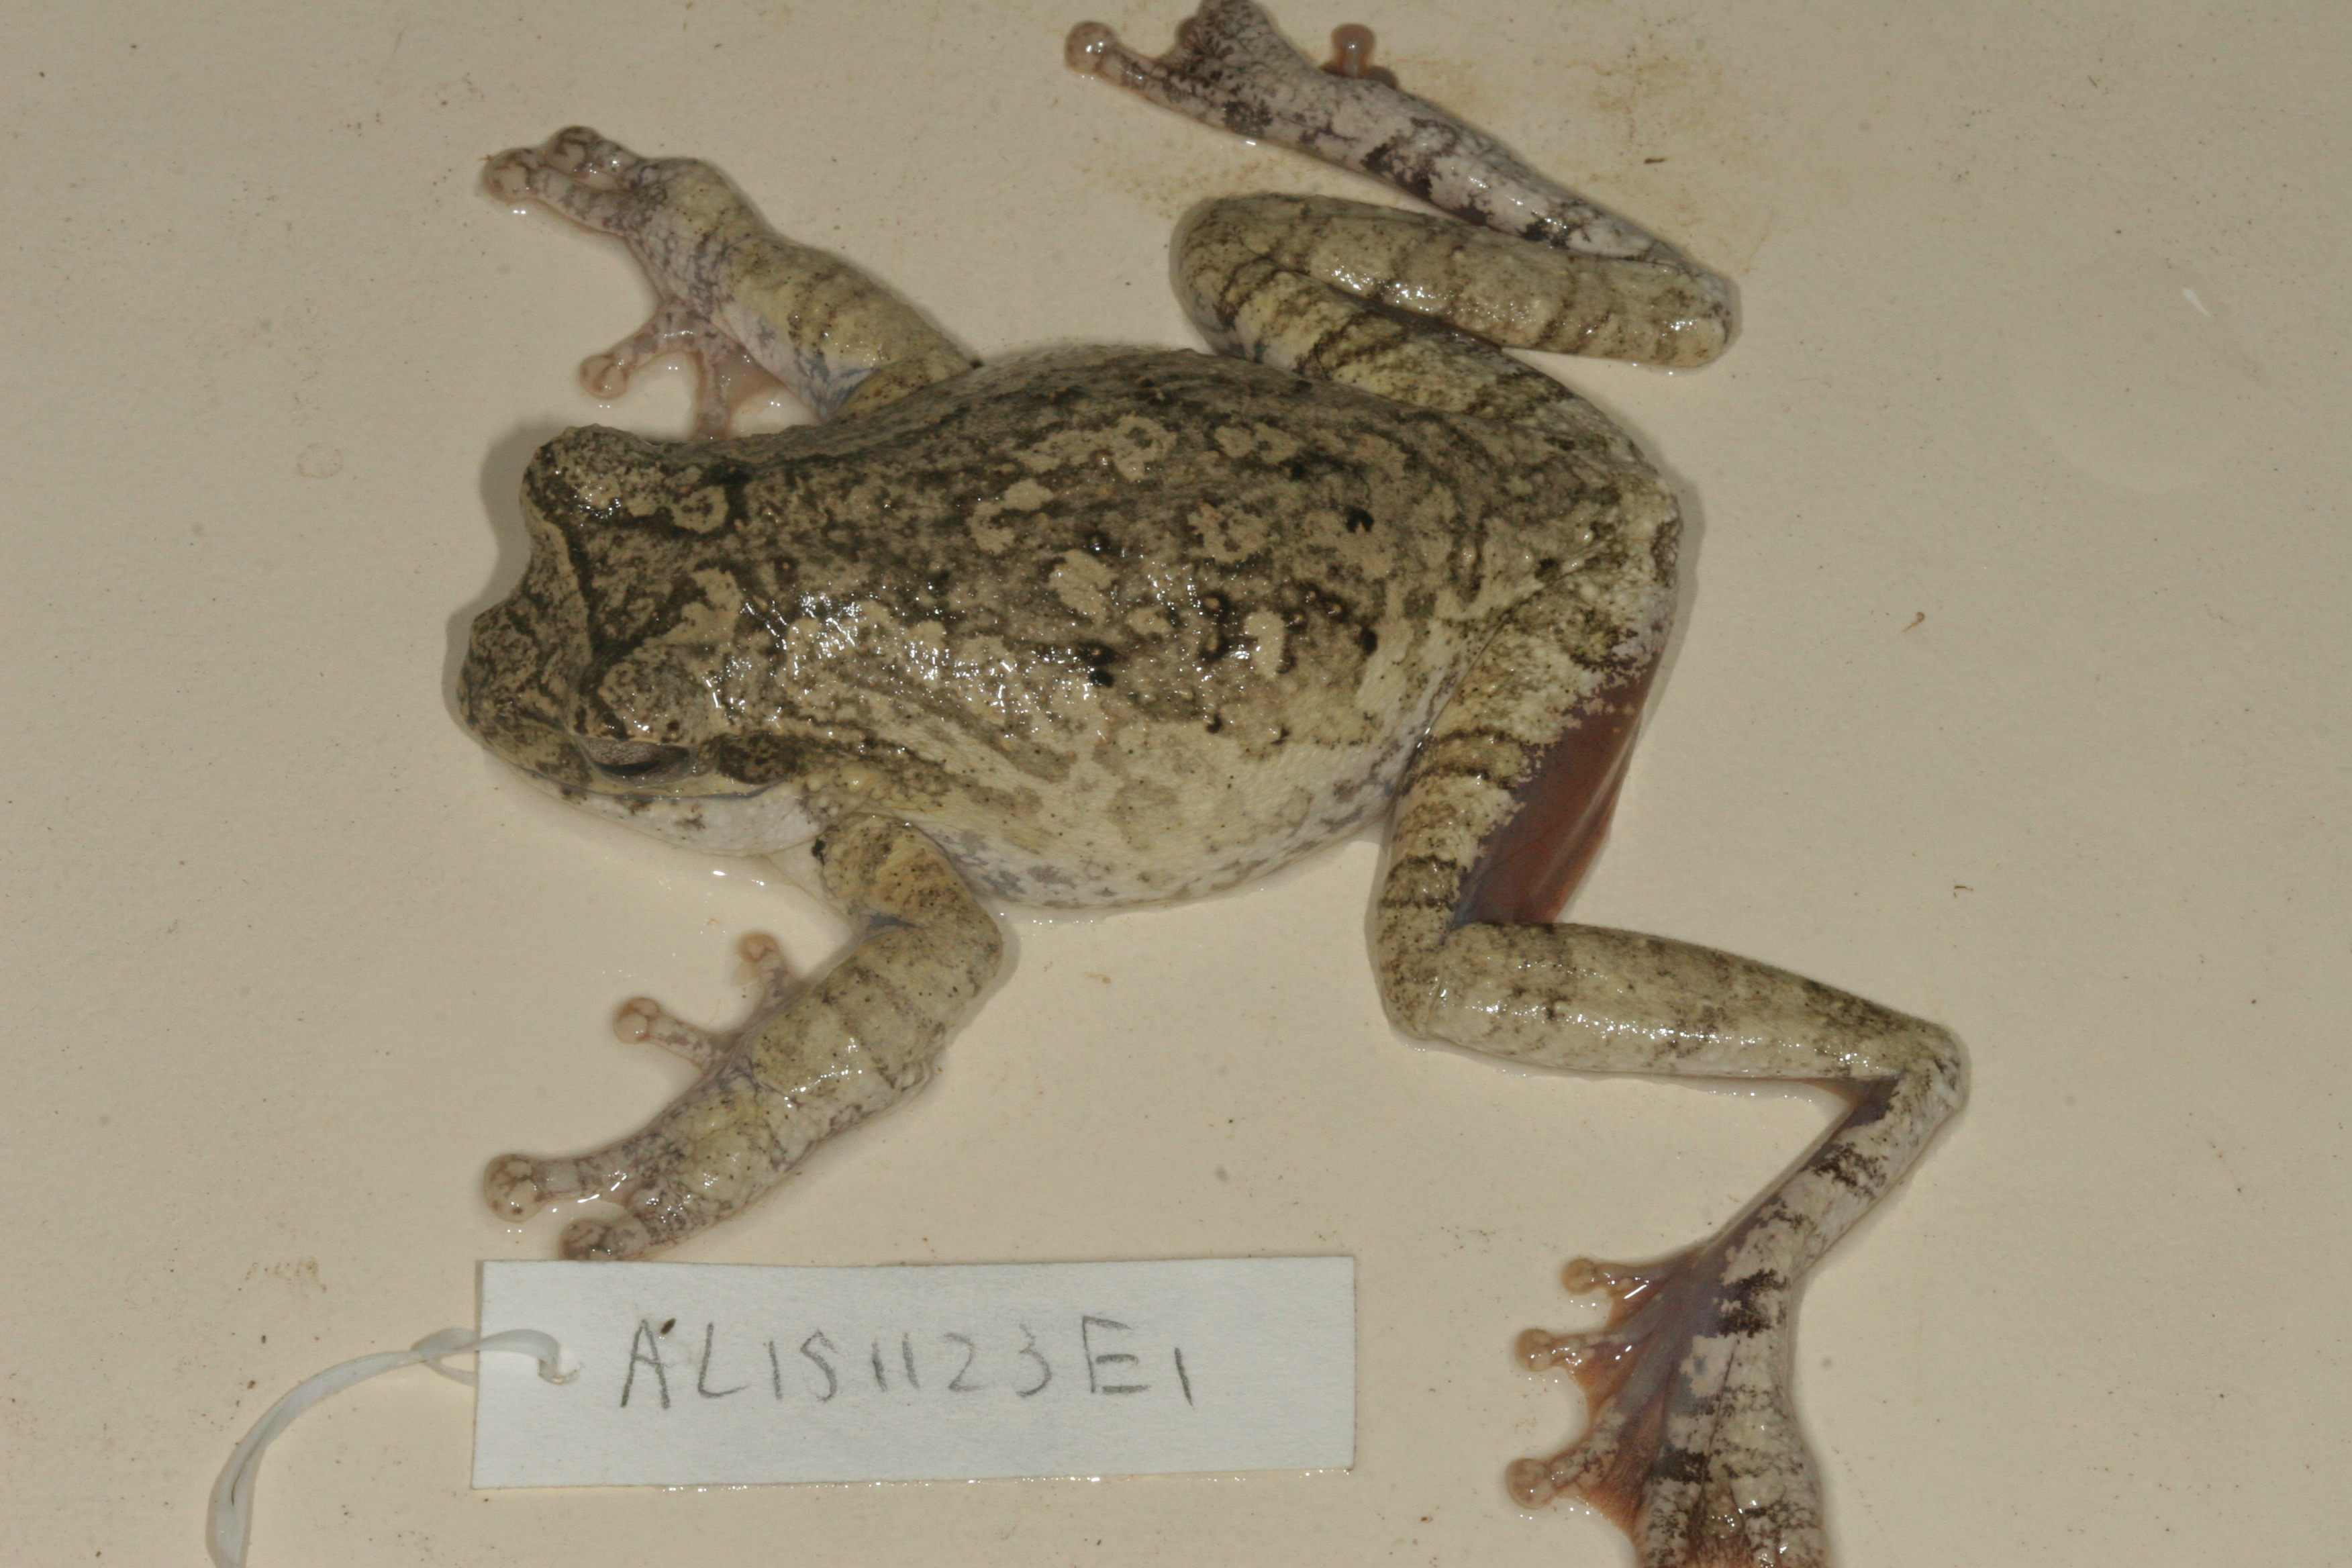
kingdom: Animalia
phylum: Chordata
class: Amphibia
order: Anura
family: Rhacophoridae
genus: Chiromantis
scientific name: Chiromantis xerampelina
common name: African gray treefrog
